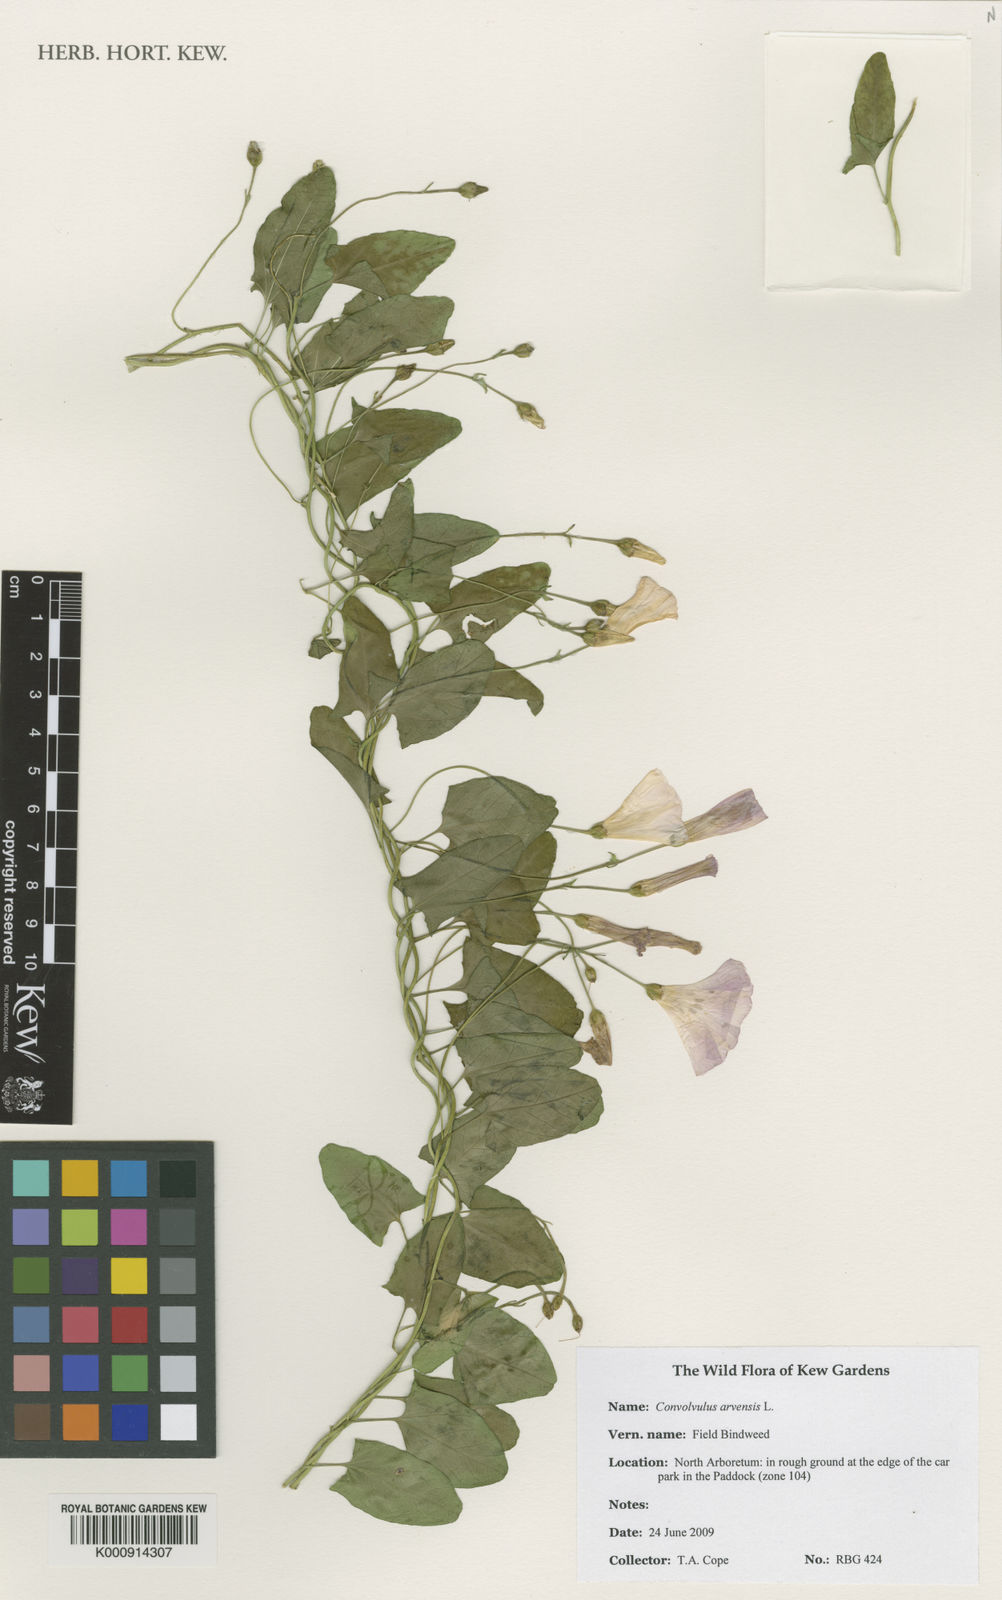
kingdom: Plantae
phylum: Tracheophyta
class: Magnoliopsida
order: Solanales
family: Convolvulaceae
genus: Convolvulus
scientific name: Convolvulus arvensis
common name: Field bindweed
